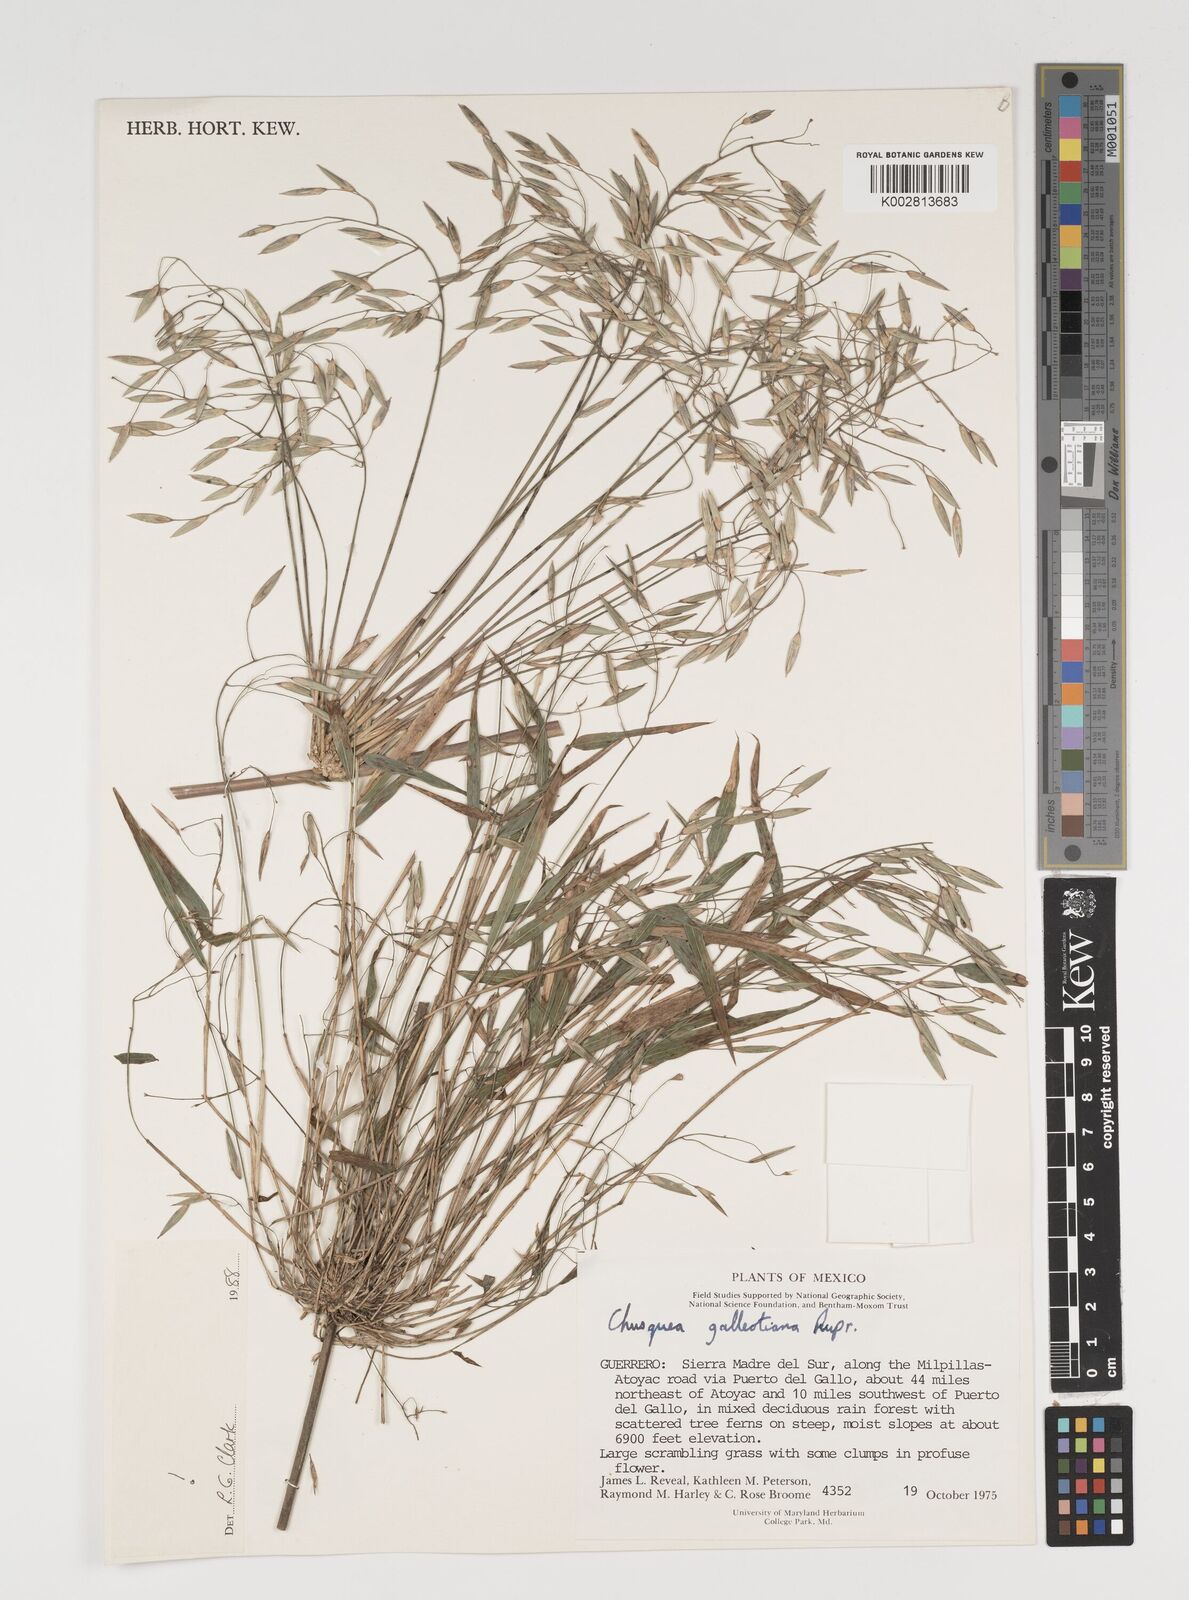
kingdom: Plantae
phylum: Tracheophyta
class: Liliopsida
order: Poales
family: Poaceae
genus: Chusquea
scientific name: Chusquea galeottiana
